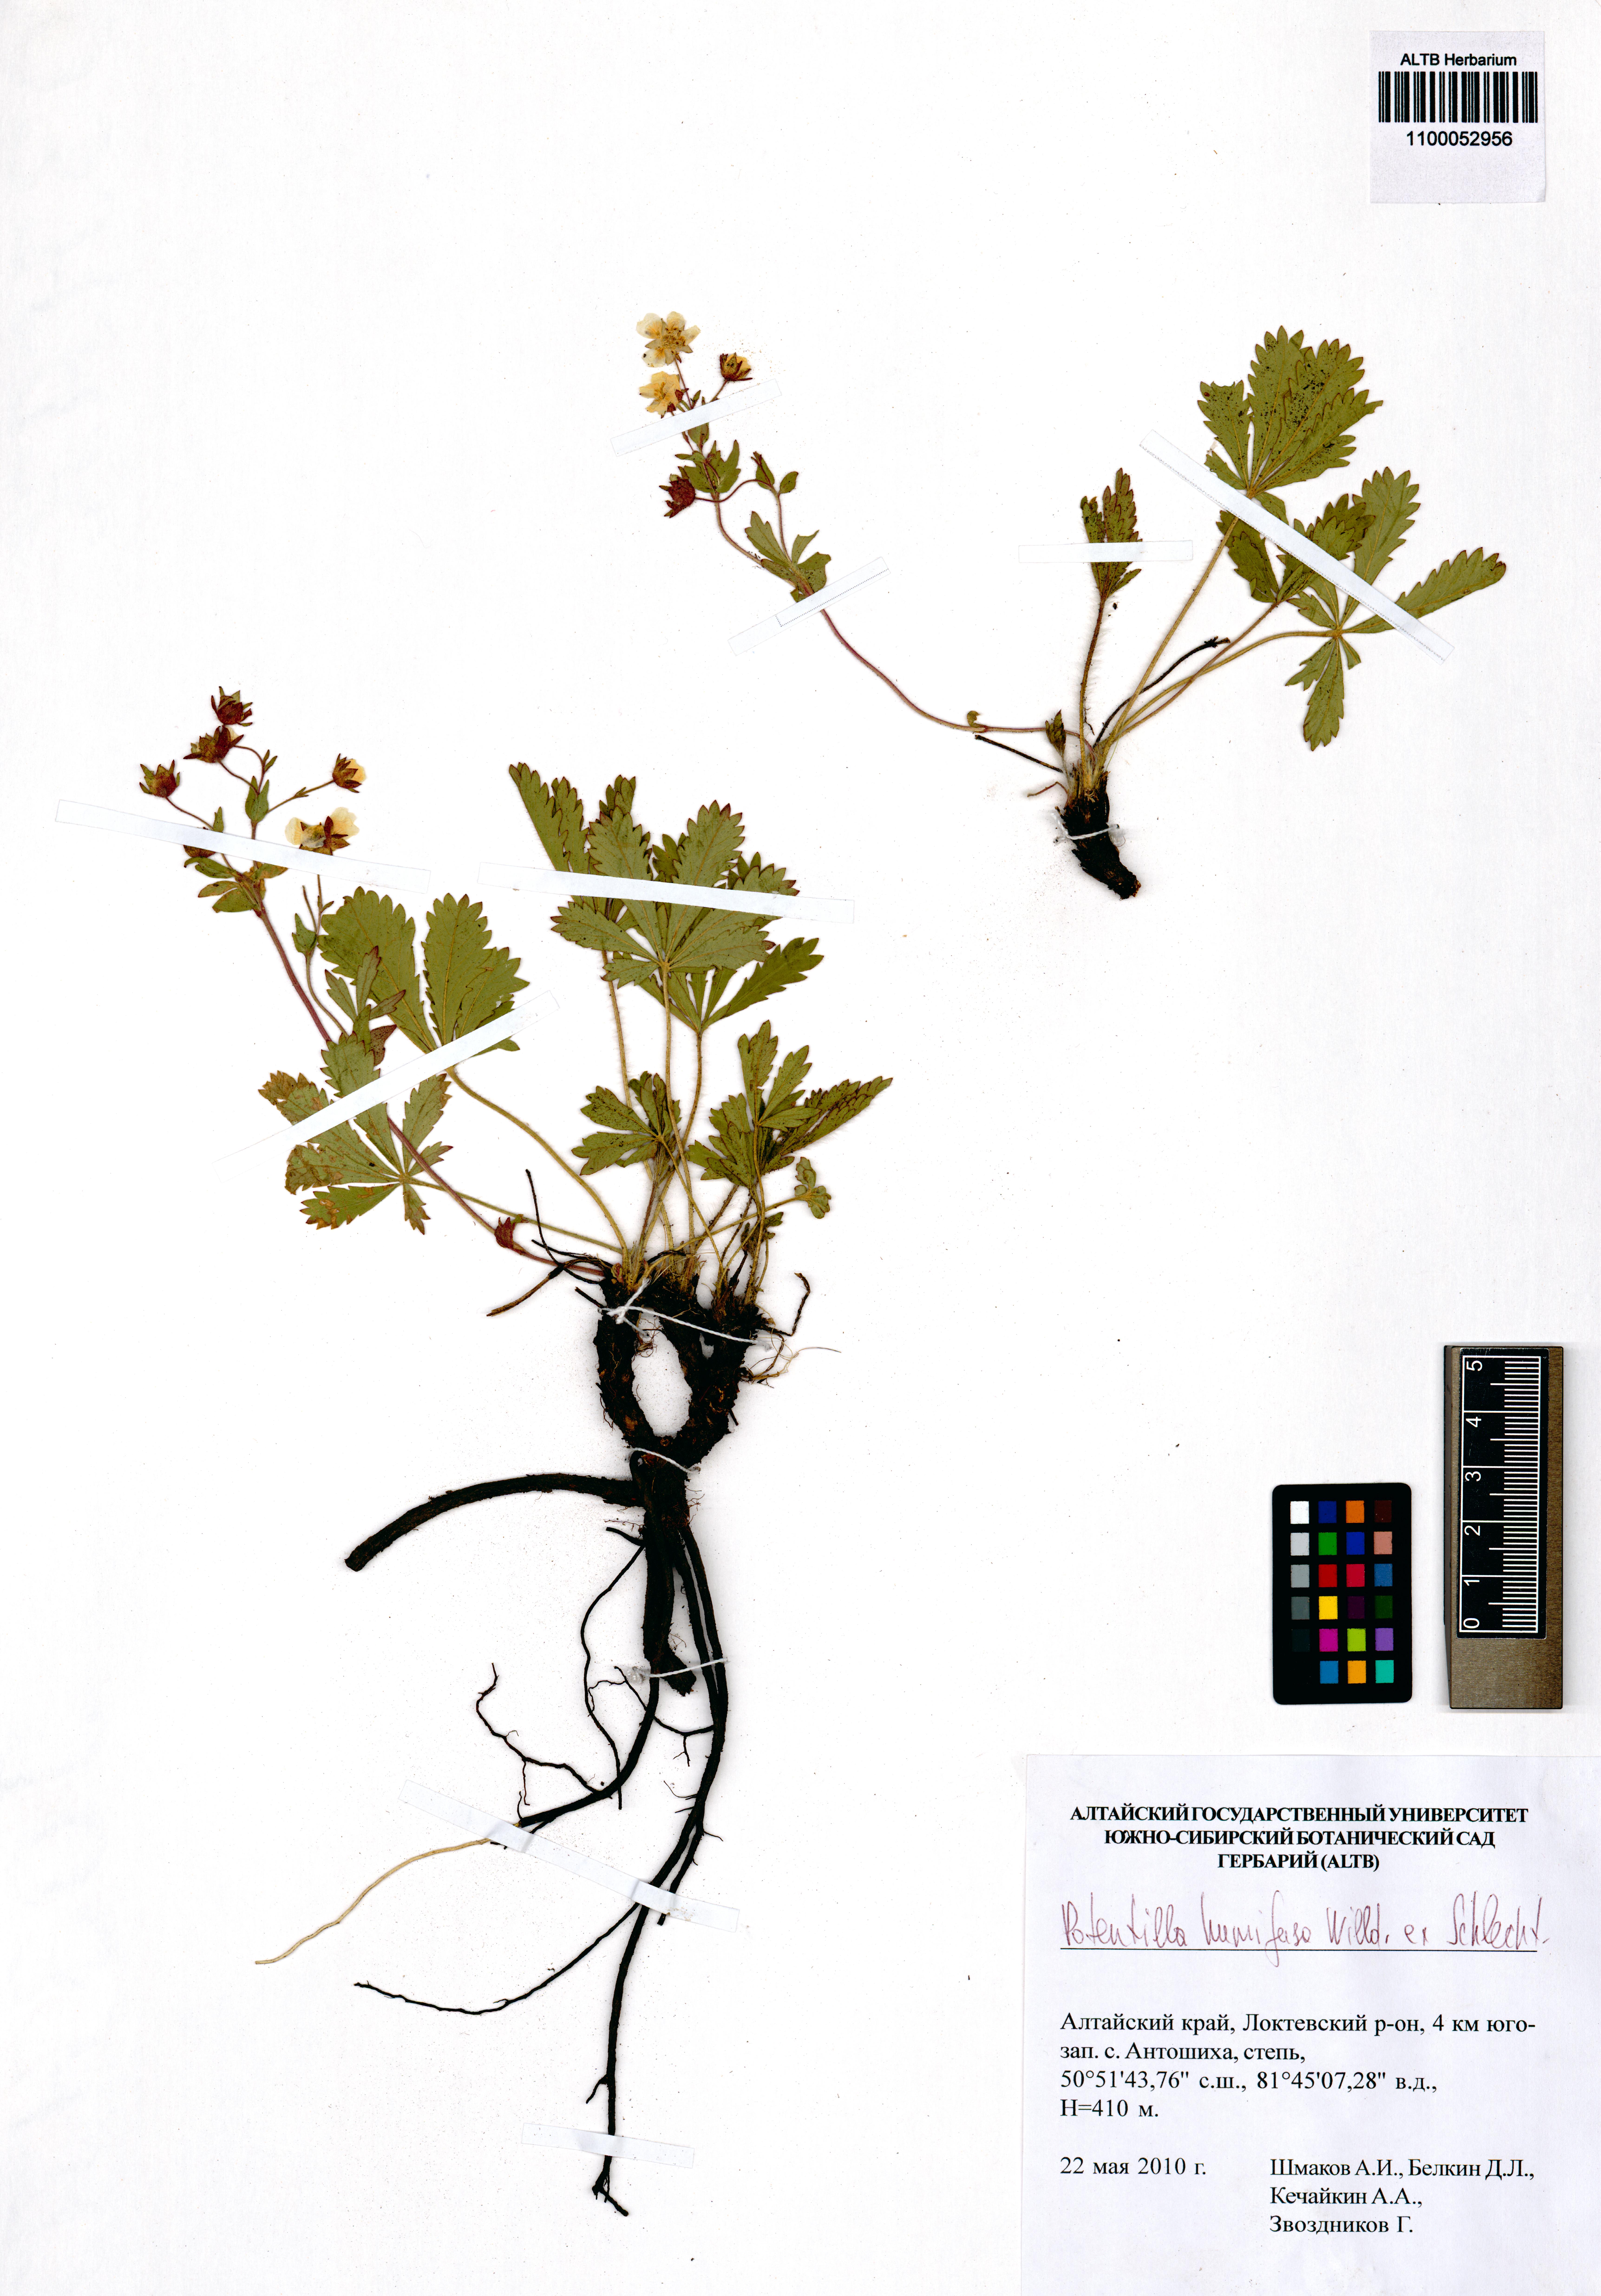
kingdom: Plantae
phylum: Tracheophyta
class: Magnoliopsida
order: Rosales
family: Rosaceae
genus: Potentilla
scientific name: Potentilla humifusa
